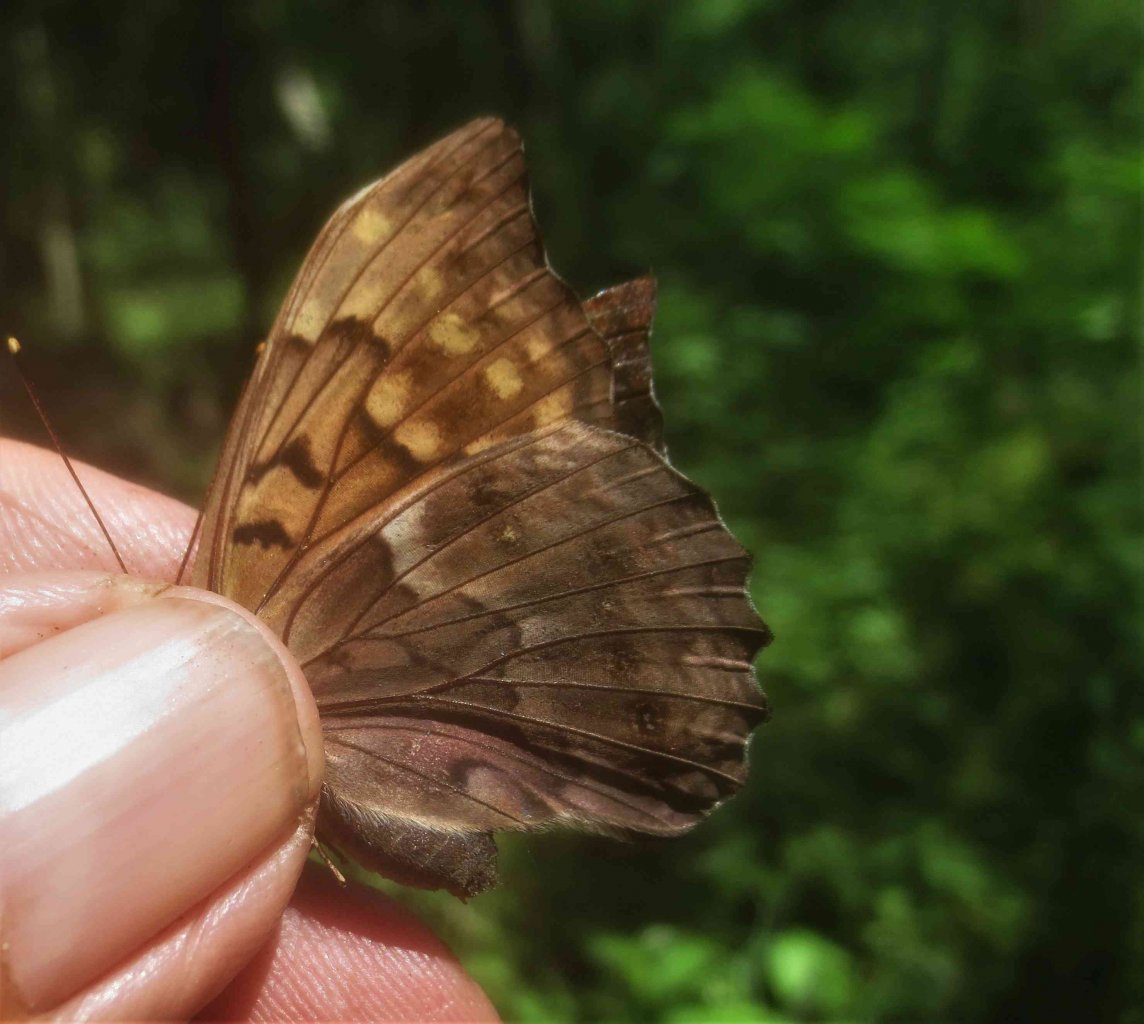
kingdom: Animalia
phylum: Arthropoda
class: Insecta
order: Lepidoptera
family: Nymphalidae
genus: Asterocampa
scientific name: Asterocampa clyton
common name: Tawny Emperor
